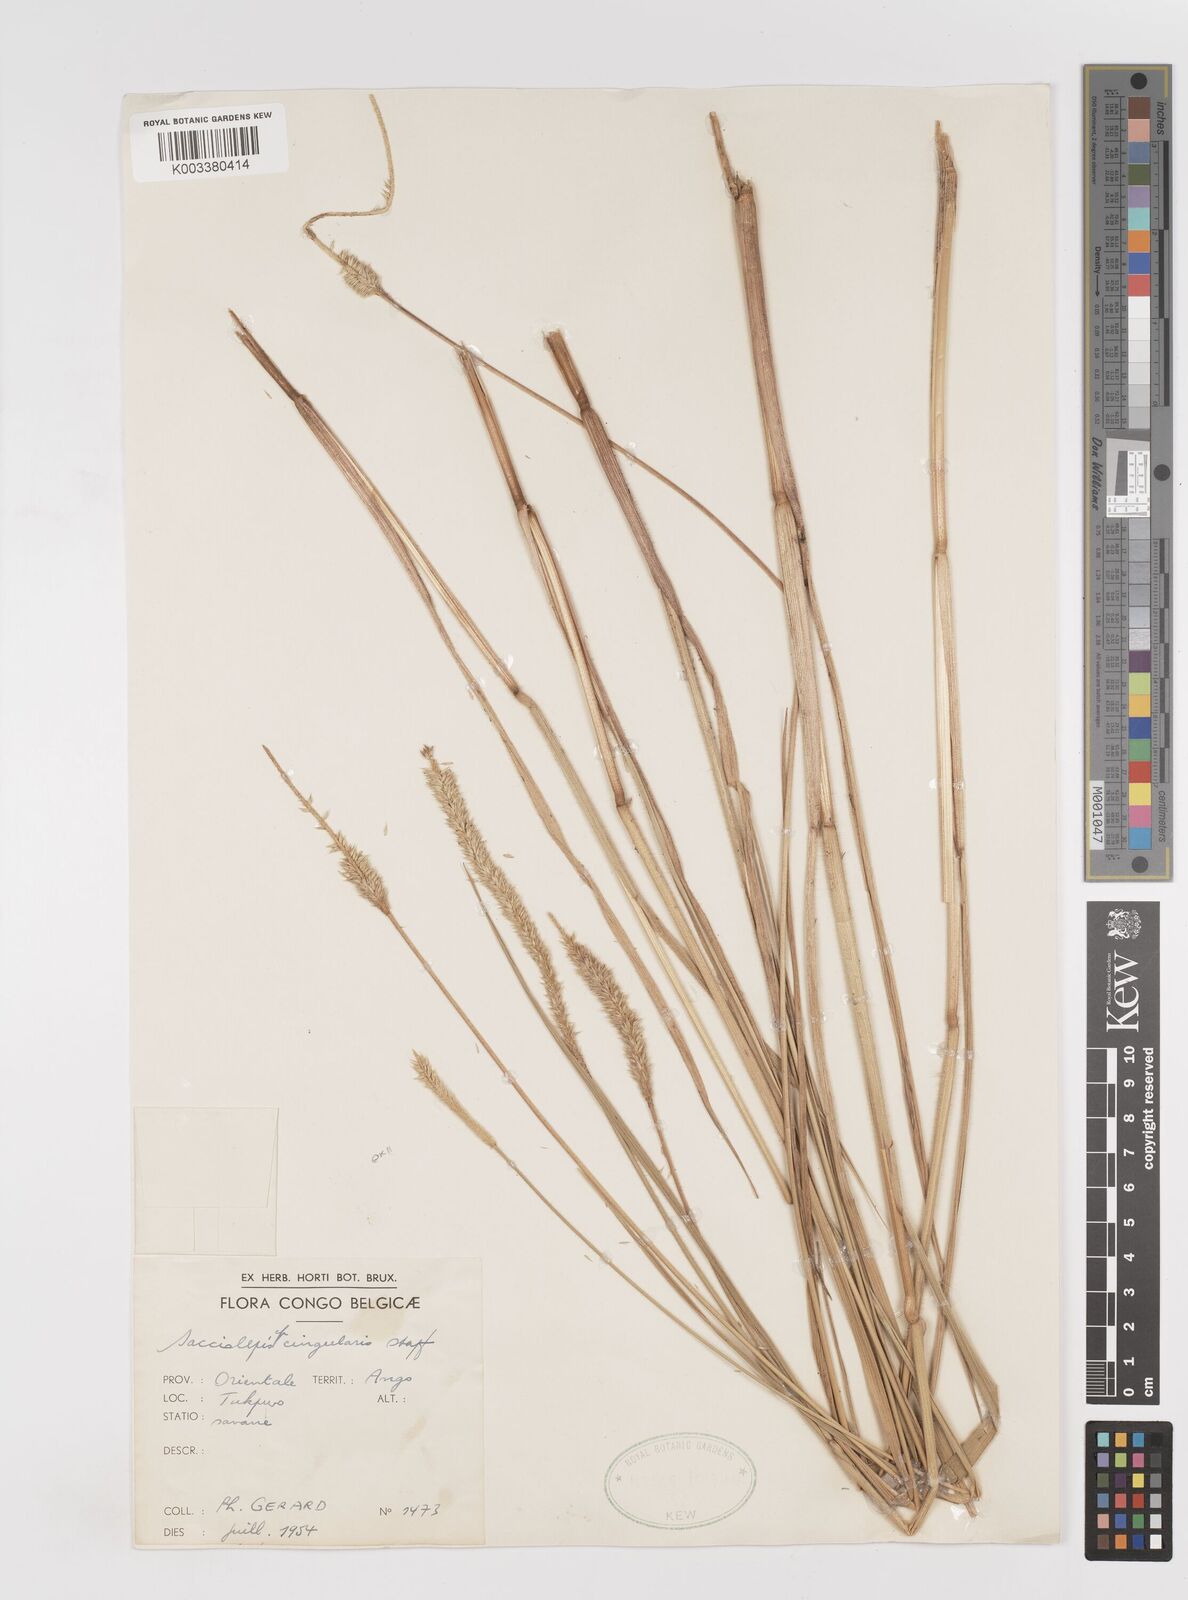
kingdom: Plantae
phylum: Tracheophyta
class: Liliopsida
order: Poales
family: Poaceae
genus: Sacciolepis
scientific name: Sacciolepis cingularis
